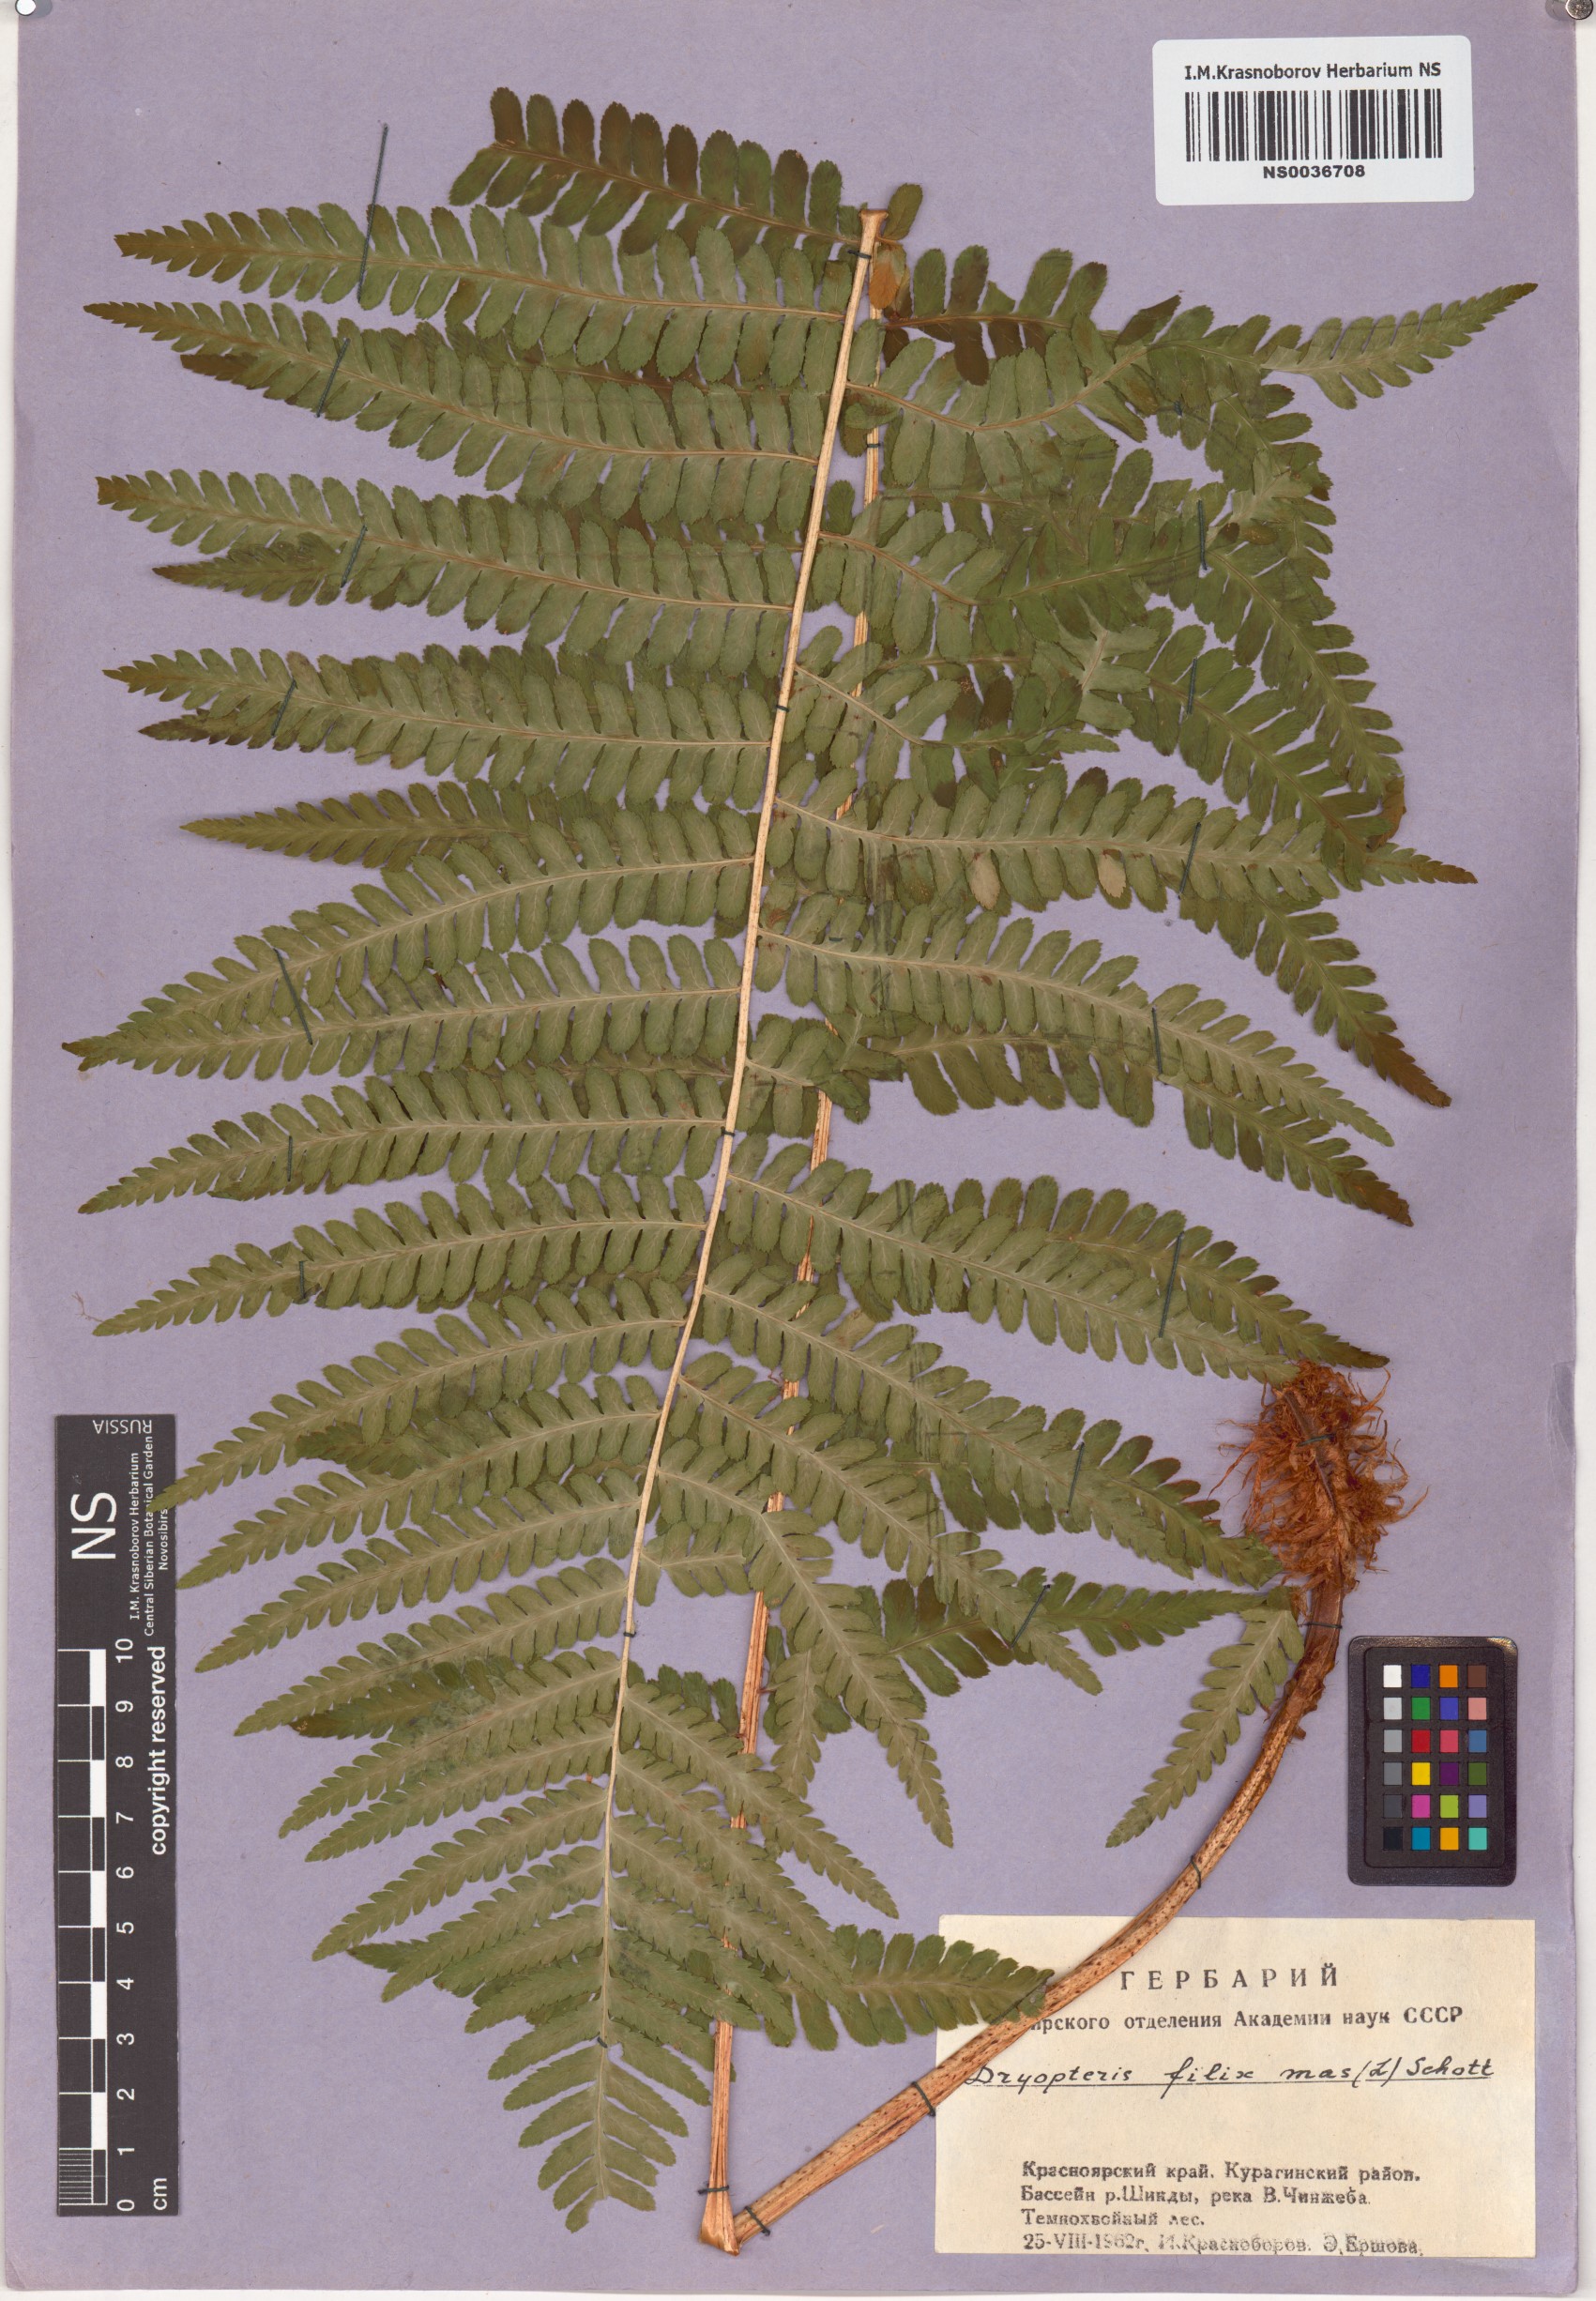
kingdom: Plantae
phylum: Tracheophyta
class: Polypodiopsida
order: Polypodiales
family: Dryopteridaceae
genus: Dryopteris
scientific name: Dryopteris filix-mas
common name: Male fern
